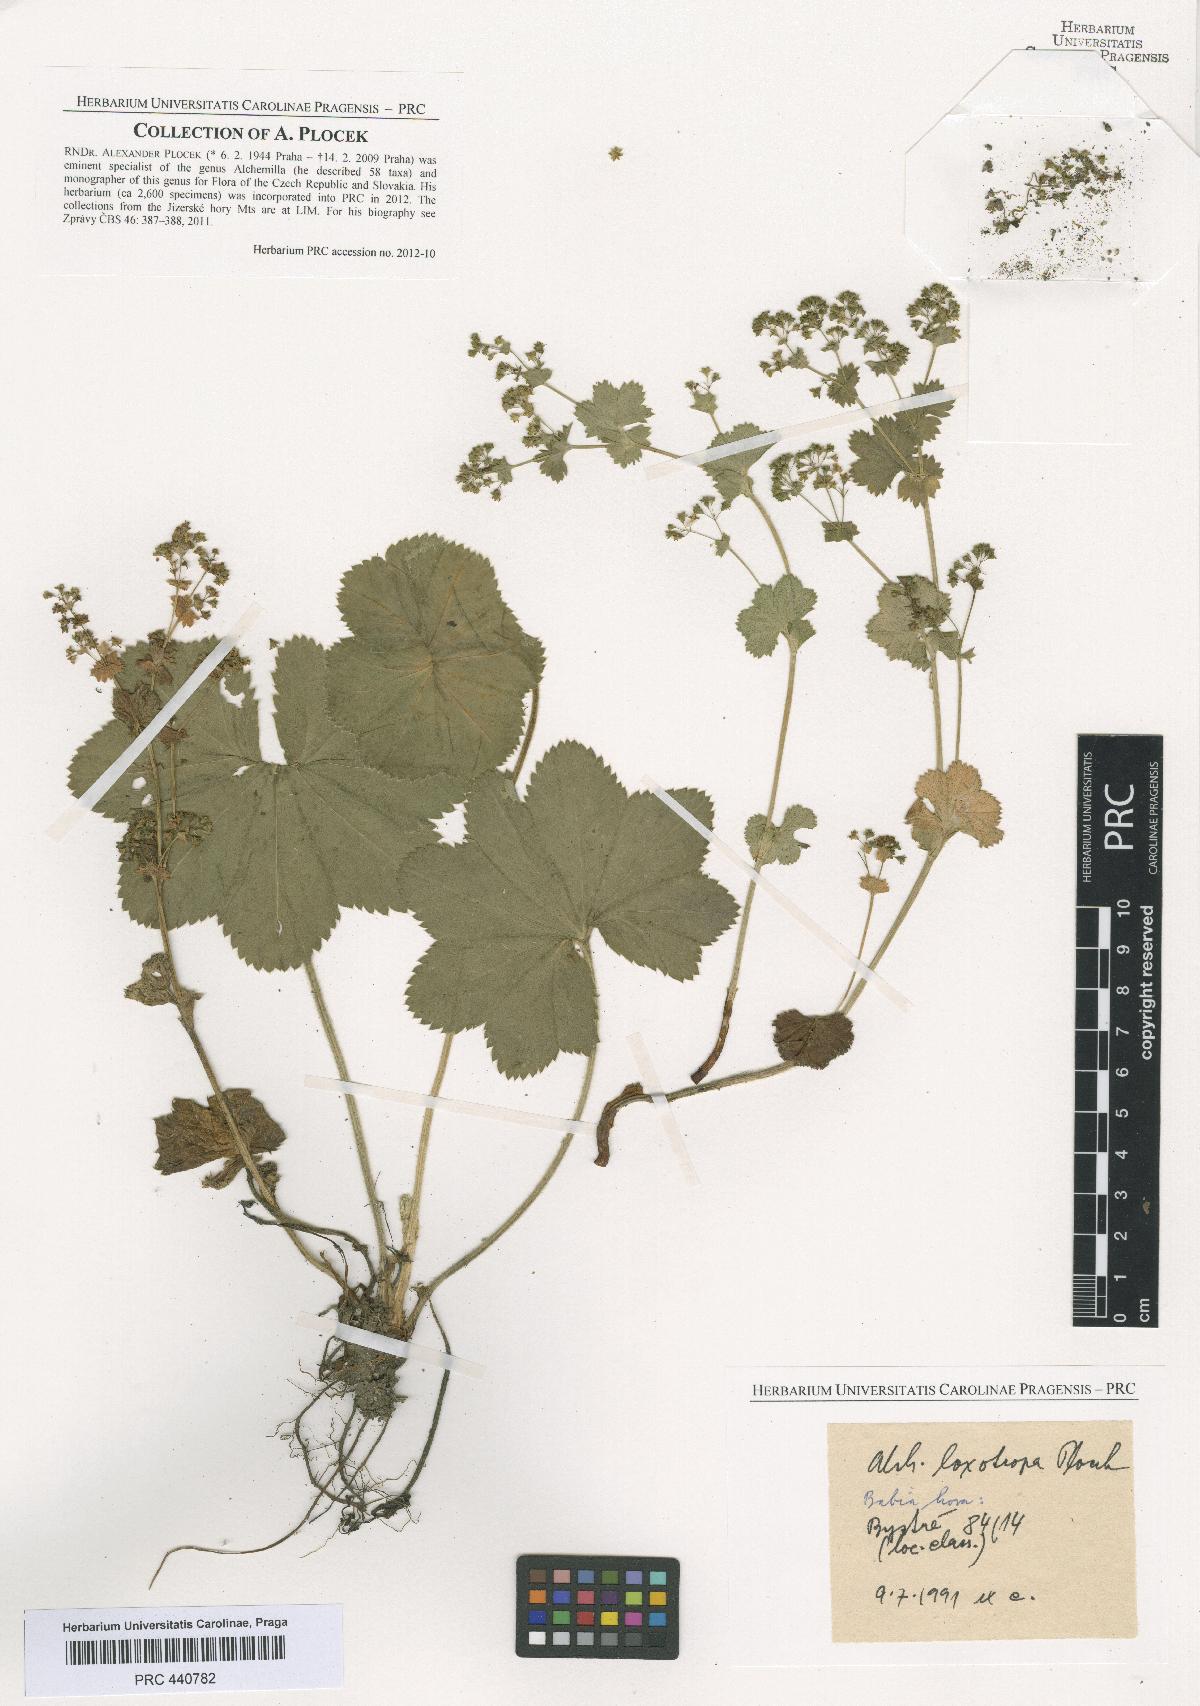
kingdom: Plantae
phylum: Tracheophyta
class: Magnoliopsida
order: Rosales
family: Rosaceae
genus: Alchemilla
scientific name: Alchemilla loxotropa
